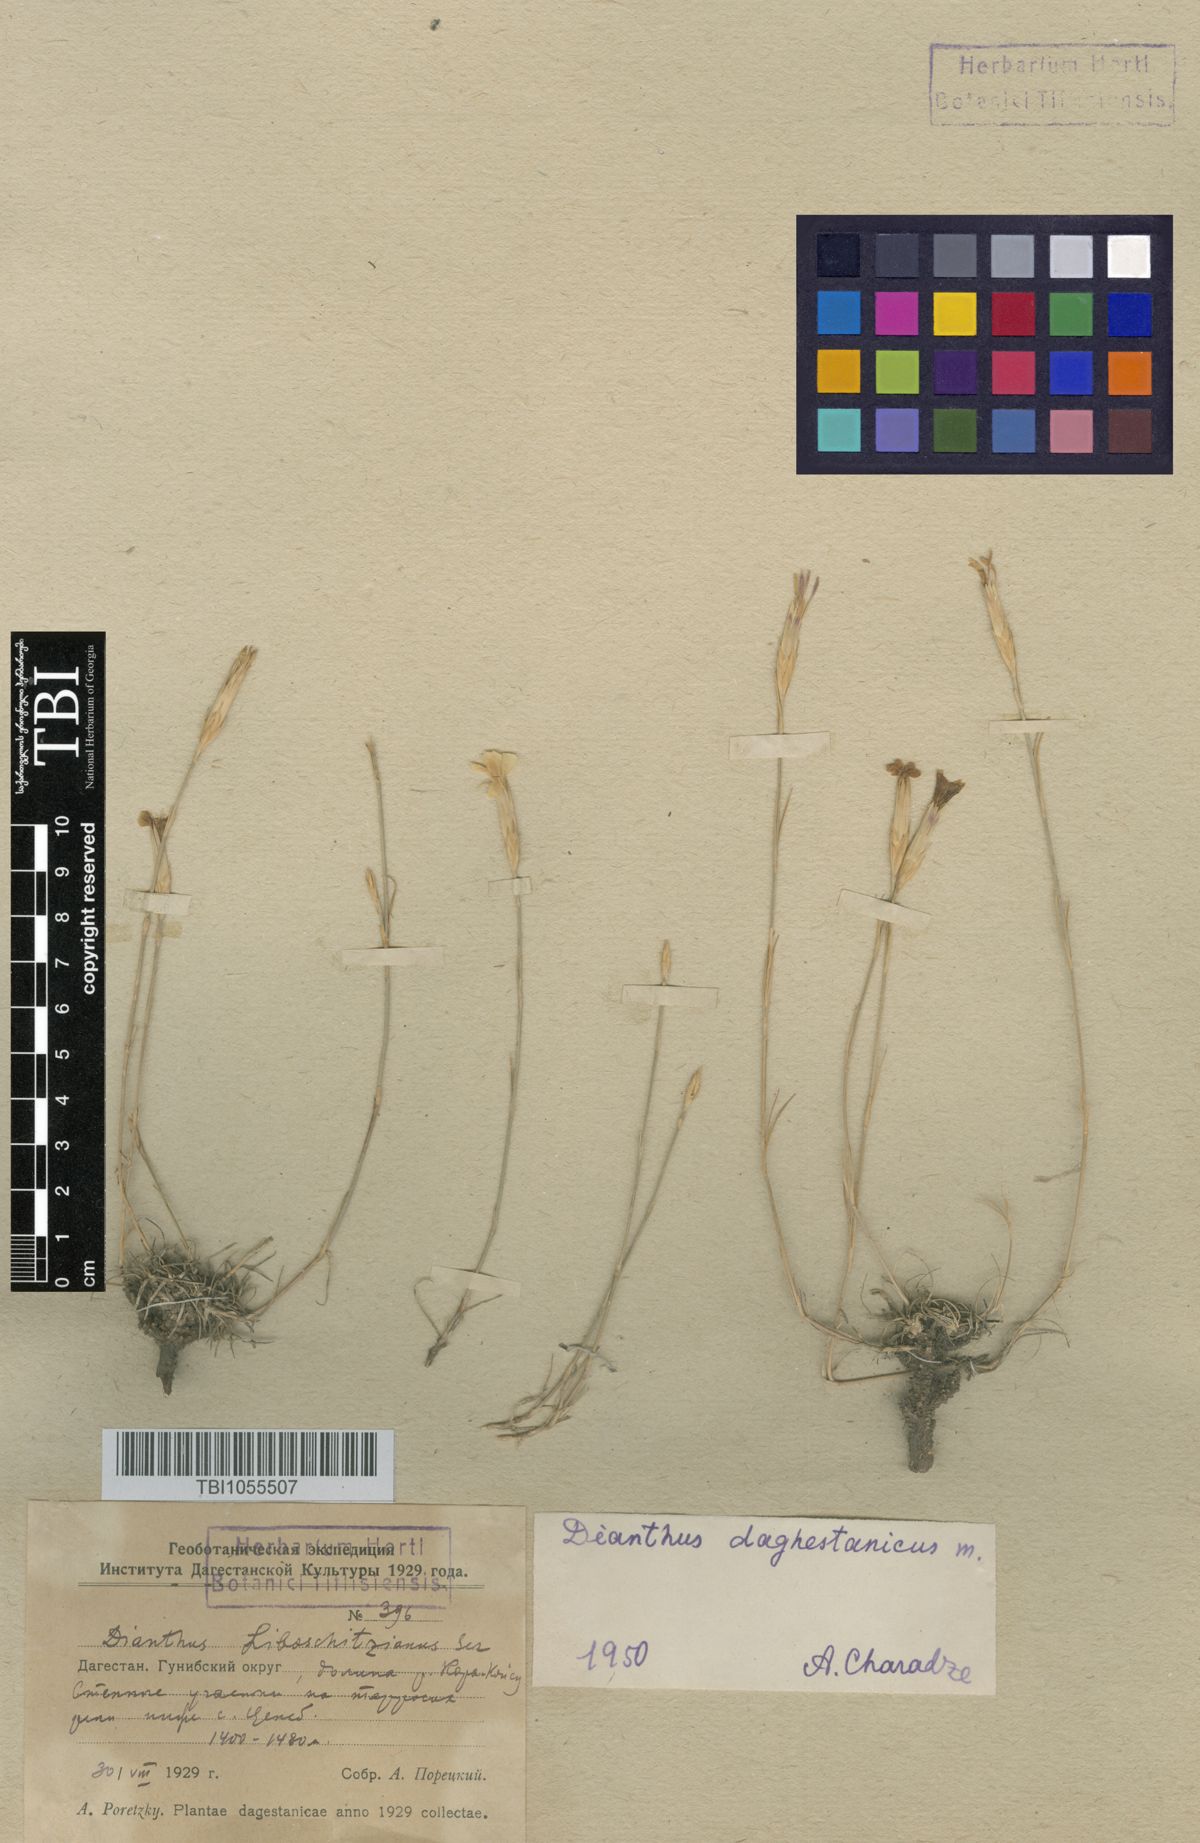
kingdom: Plantae
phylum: Tracheophyta
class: Magnoliopsida
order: Caryophyllales
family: Caryophyllaceae
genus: Dianthus
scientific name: Dianthus daghestanicus
